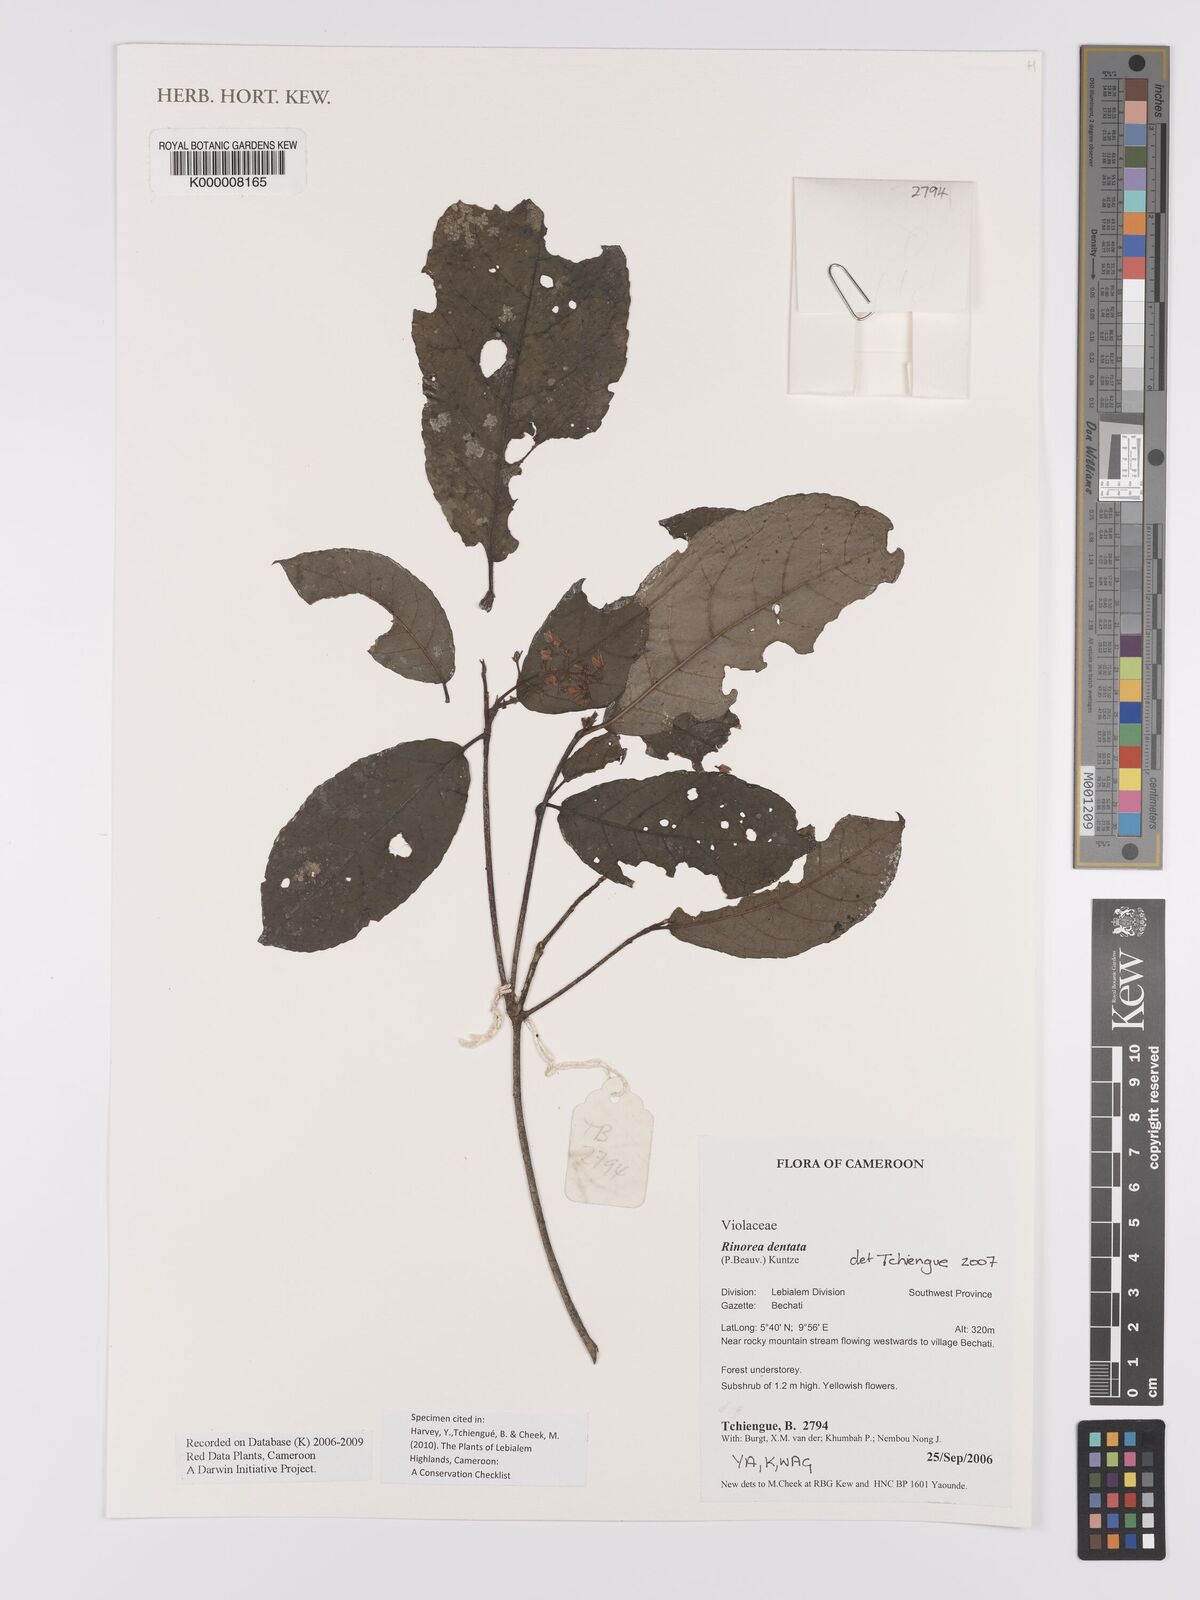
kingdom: Plantae
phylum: Tracheophyta
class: Magnoliopsida
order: Malpighiales
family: Violaceae
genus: Rinorea
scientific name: Rinorea dentata
